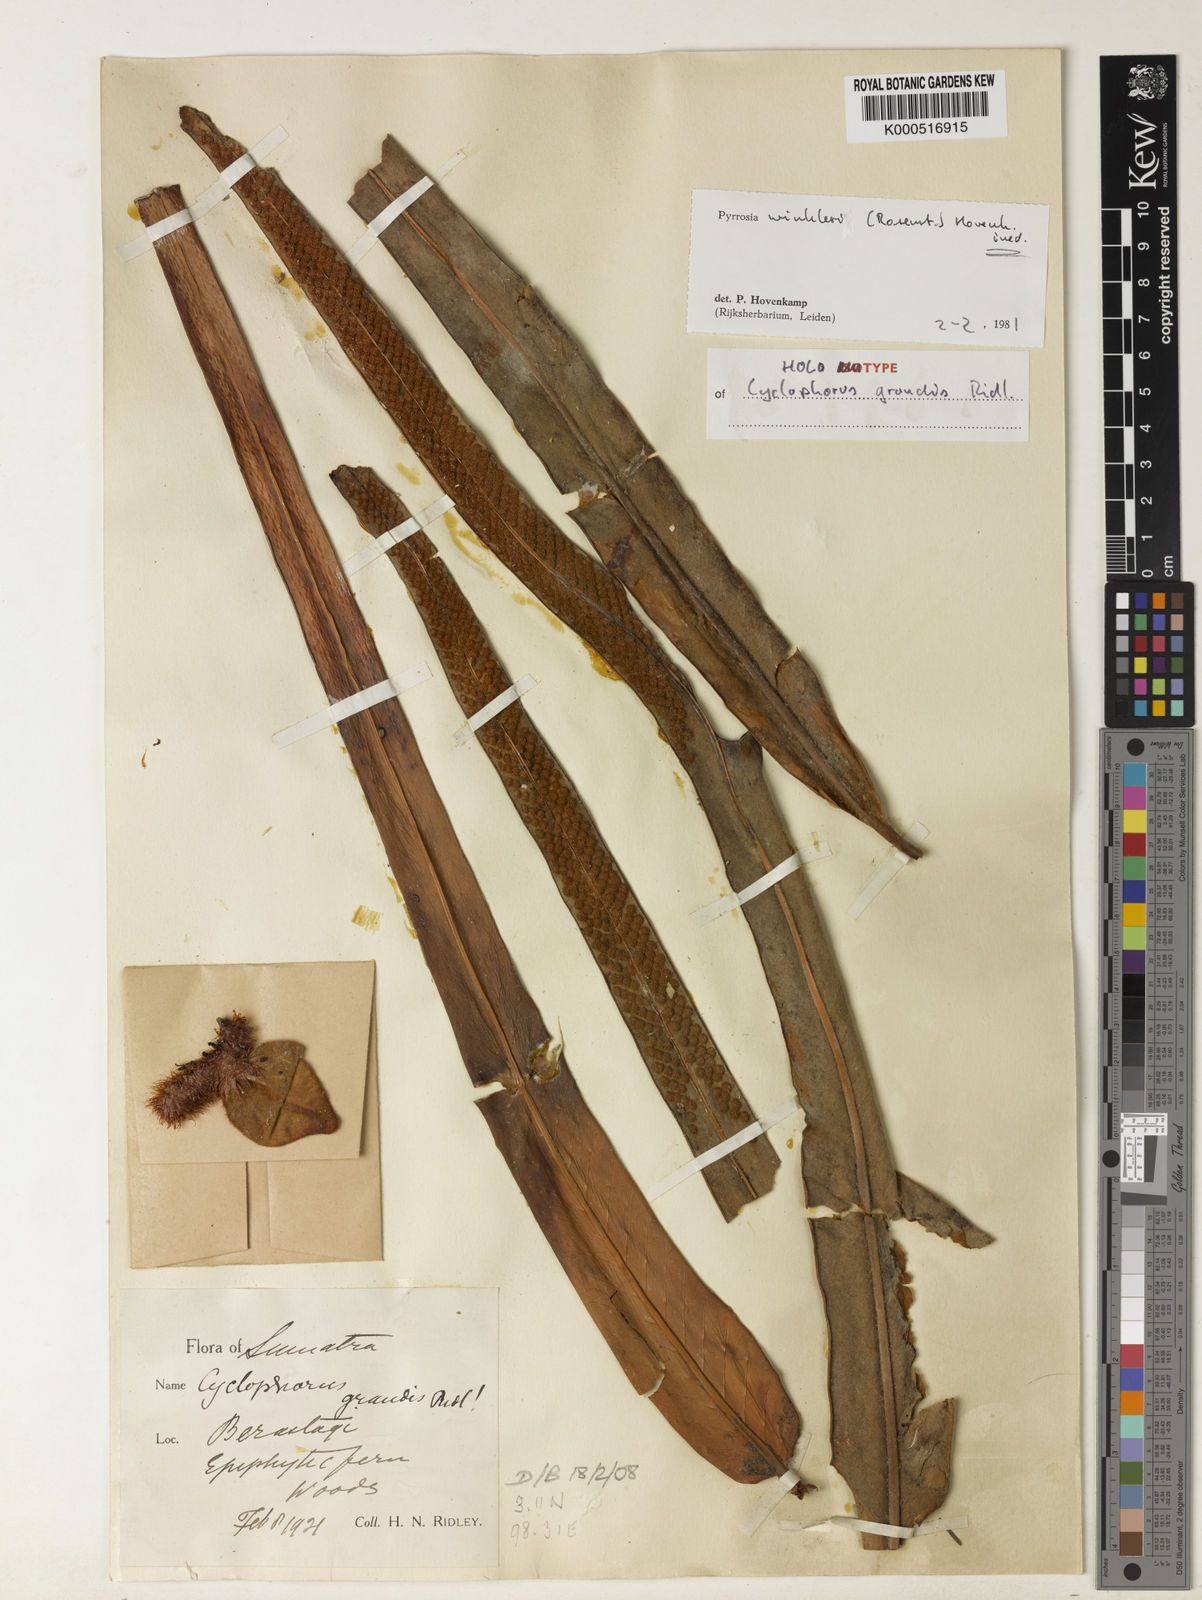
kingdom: Plantae
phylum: Tracheophyta
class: Polypodiopsida
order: Polypodiales
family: Polypodiaceae
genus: Pyrrosia
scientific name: Pyrrosia distichocarpa
